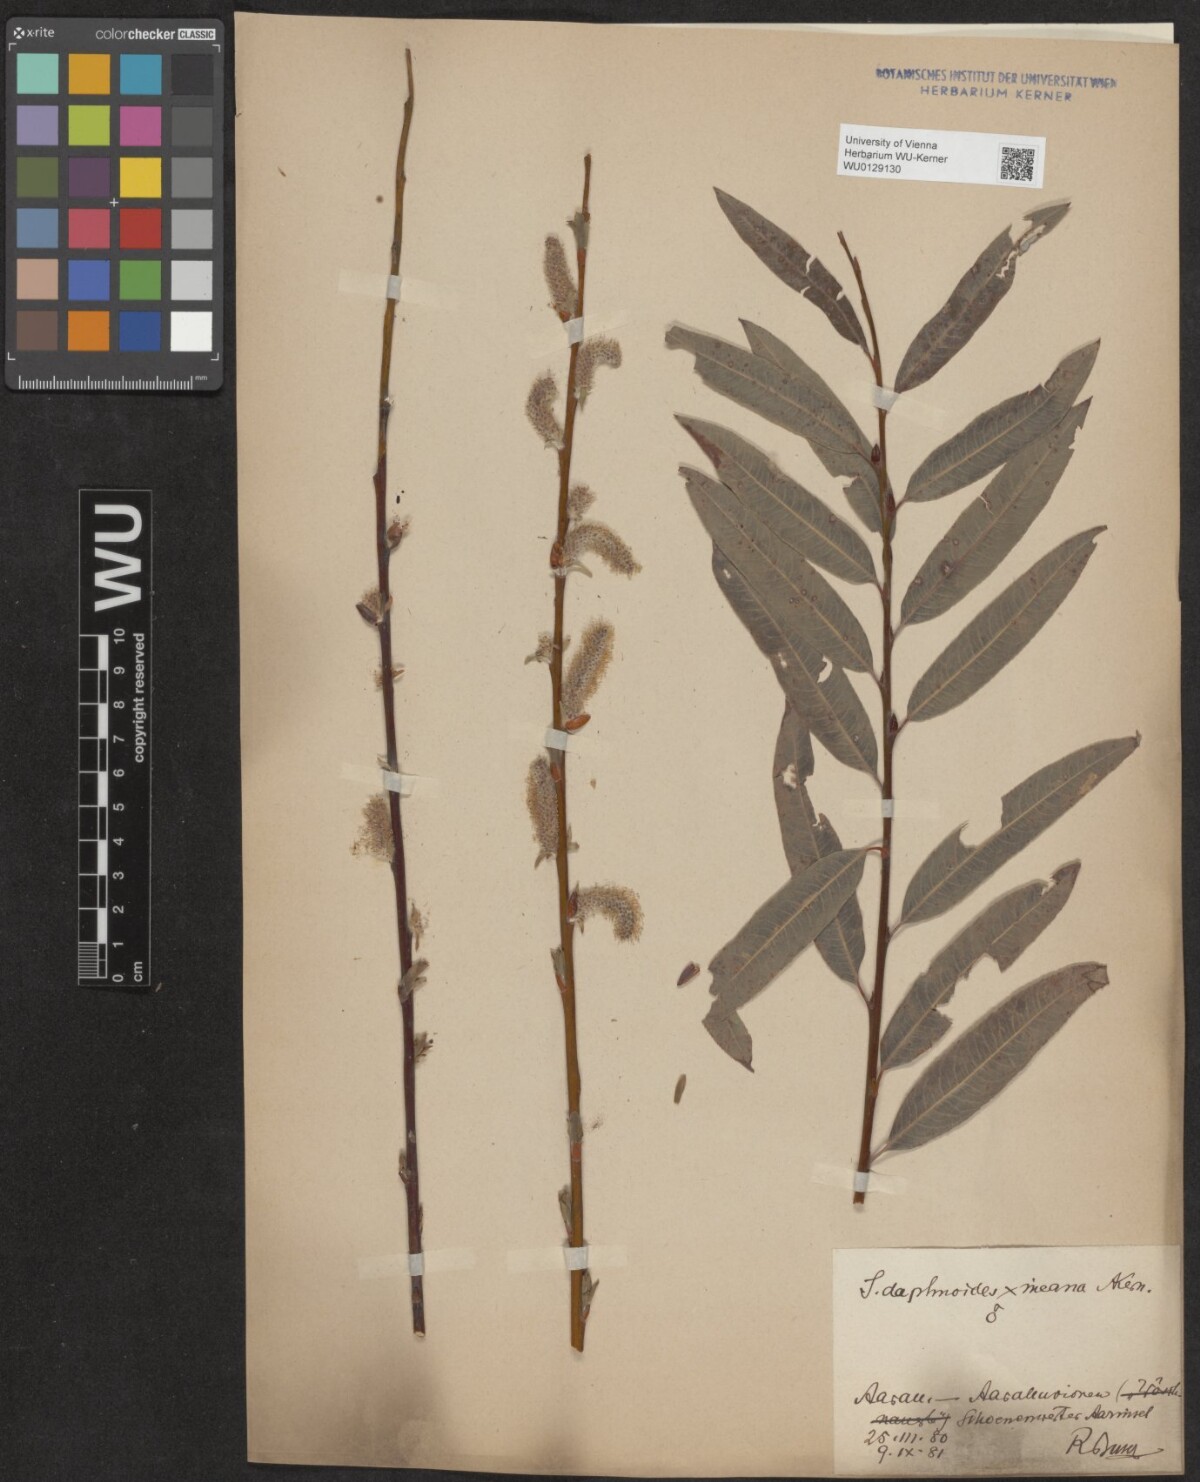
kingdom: Plantae
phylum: Tracheophyta
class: Magnoliopsida
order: Malpighiales
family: Salicaceae
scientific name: Salicaceae
